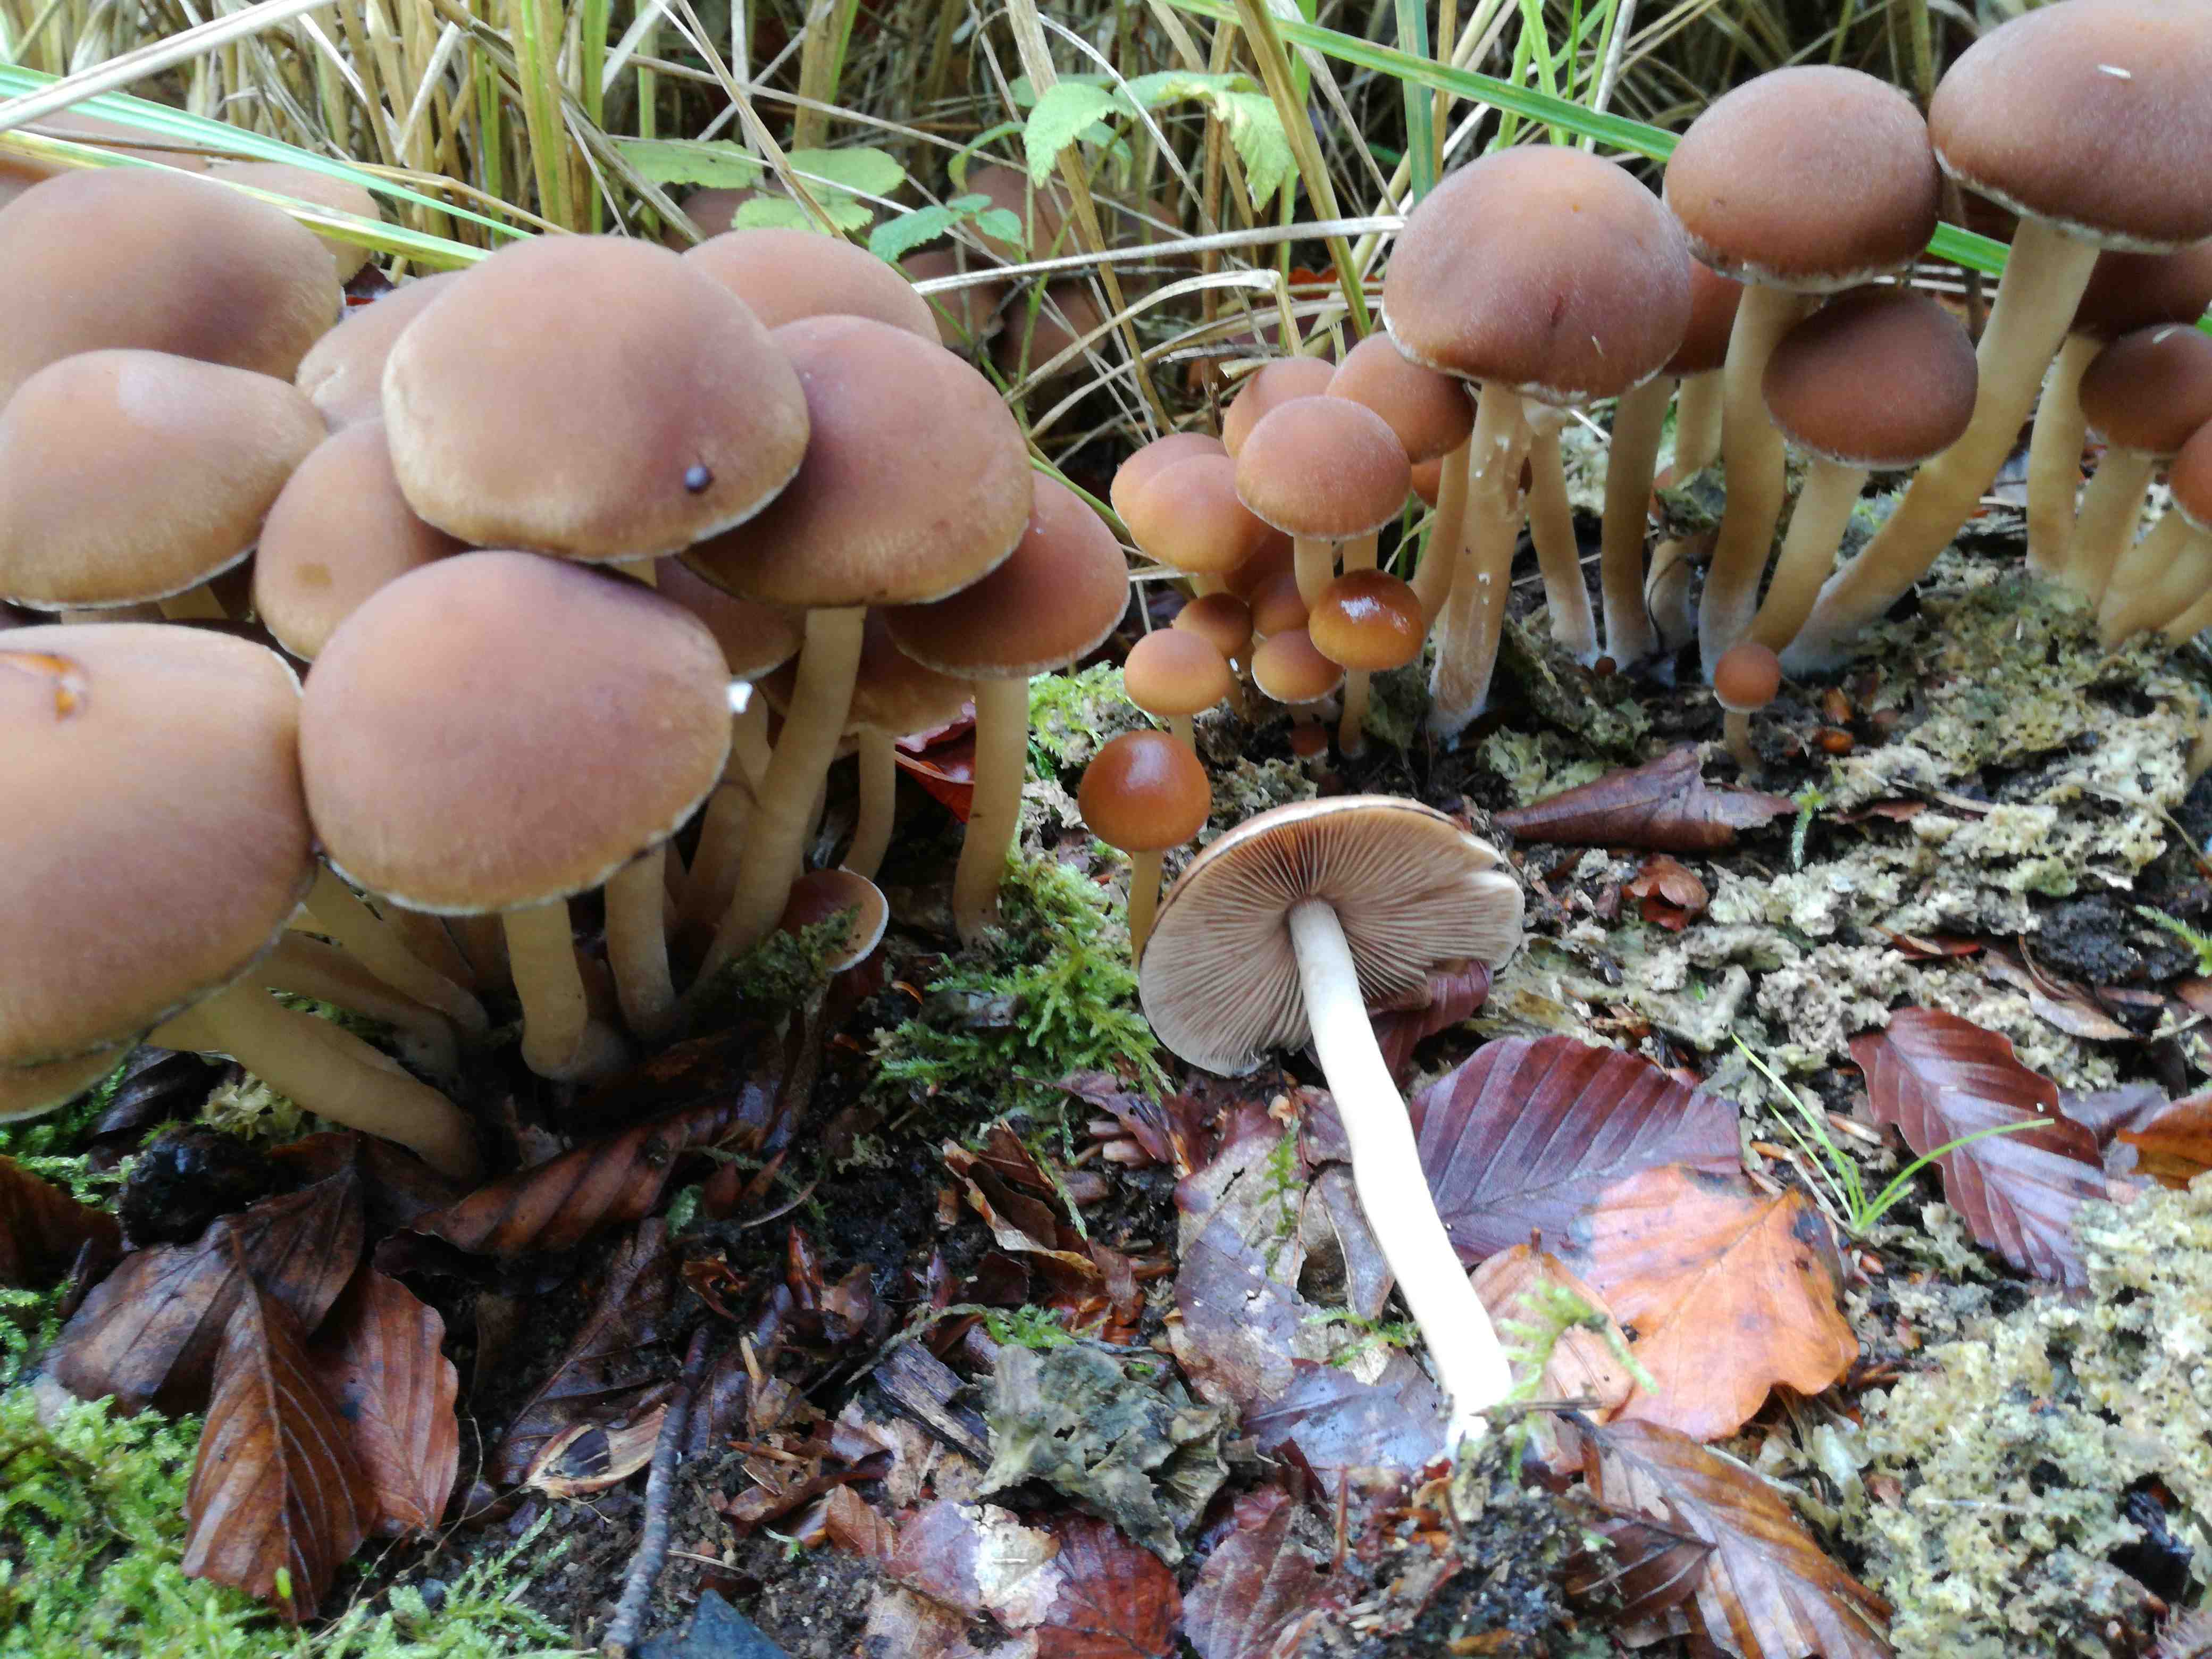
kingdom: Fungi
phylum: Basidiomycota
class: Agaricomycetes
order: Agaricales
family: Psathyrellaceae
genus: Psathyrella
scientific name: Psathyrella piluliformis
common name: lysstokket mørkhat
